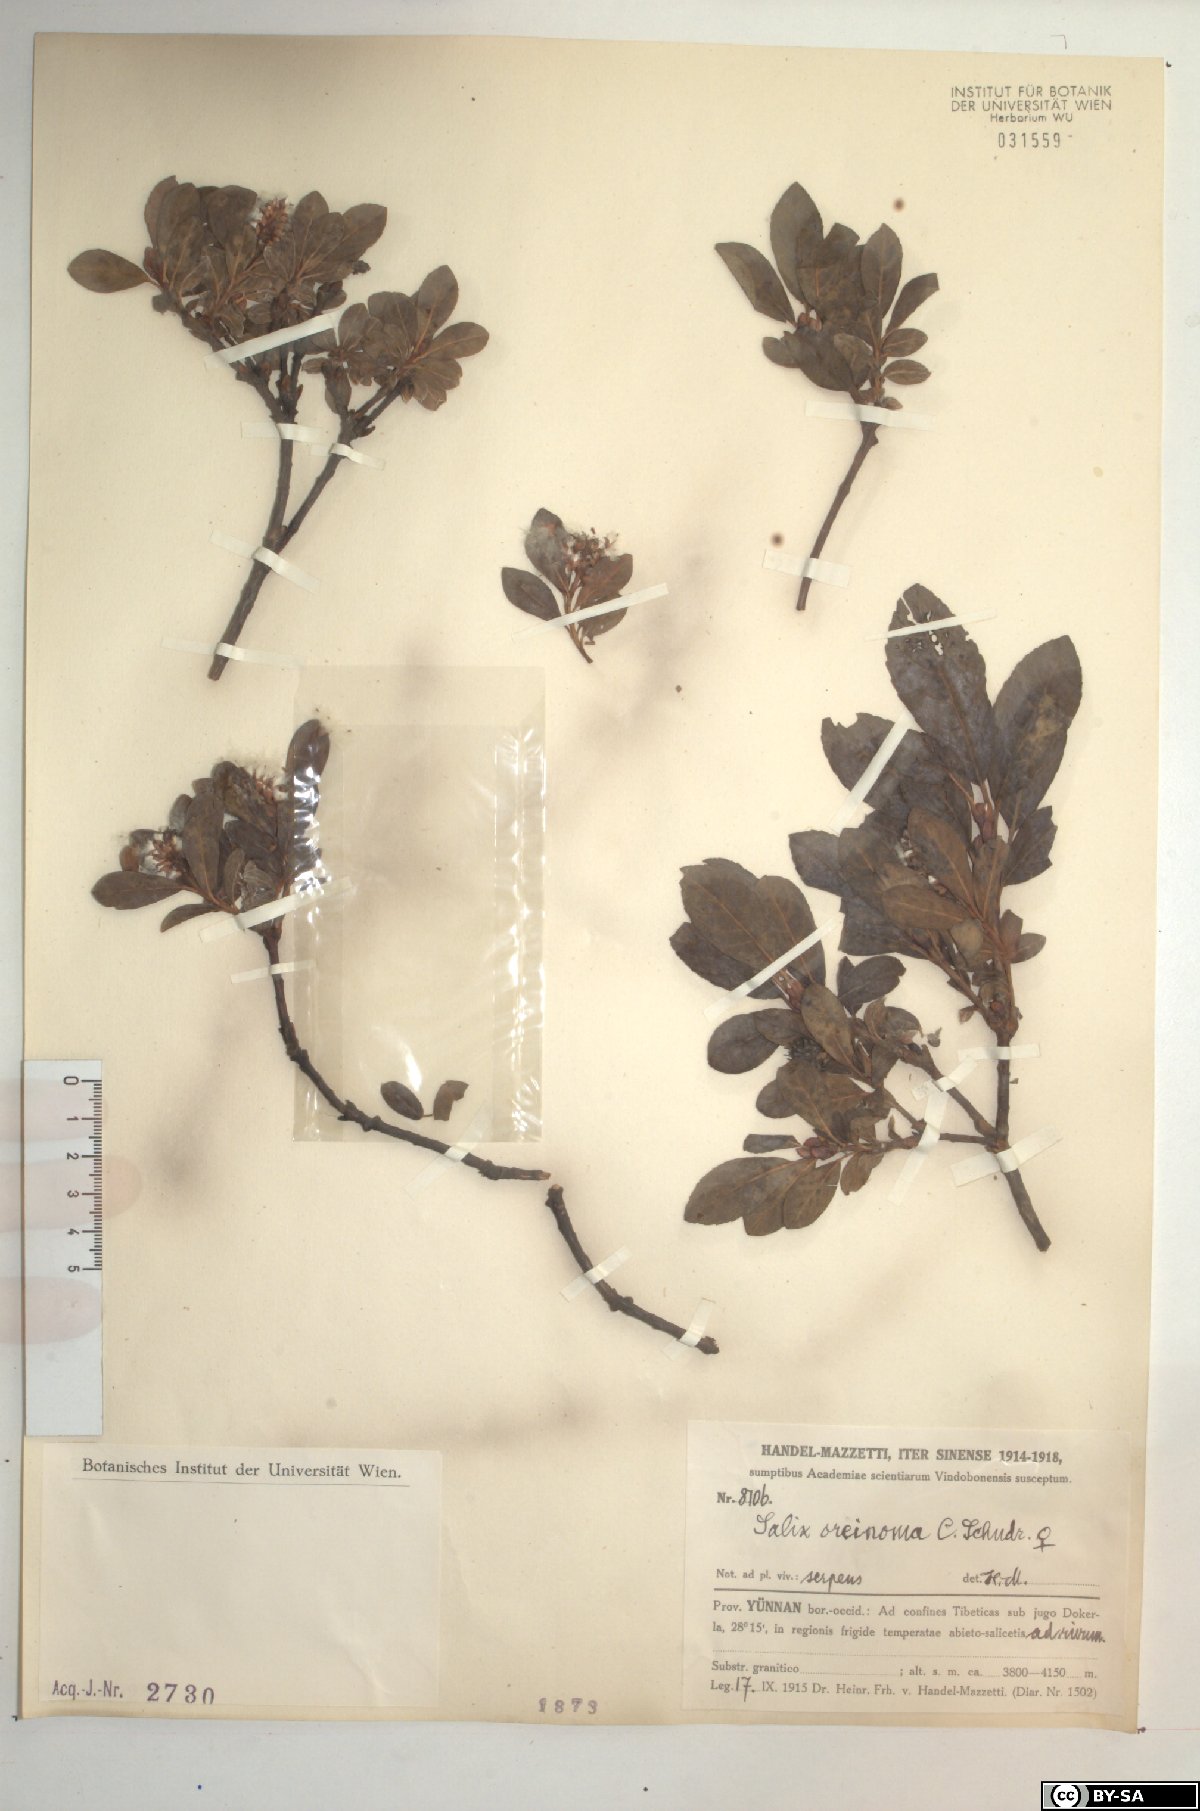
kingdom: Plantae
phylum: Tracheophyta
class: Magnoliopsida
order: Malpighiales
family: Salicaceae
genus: Salix
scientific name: Salix oreinoma
